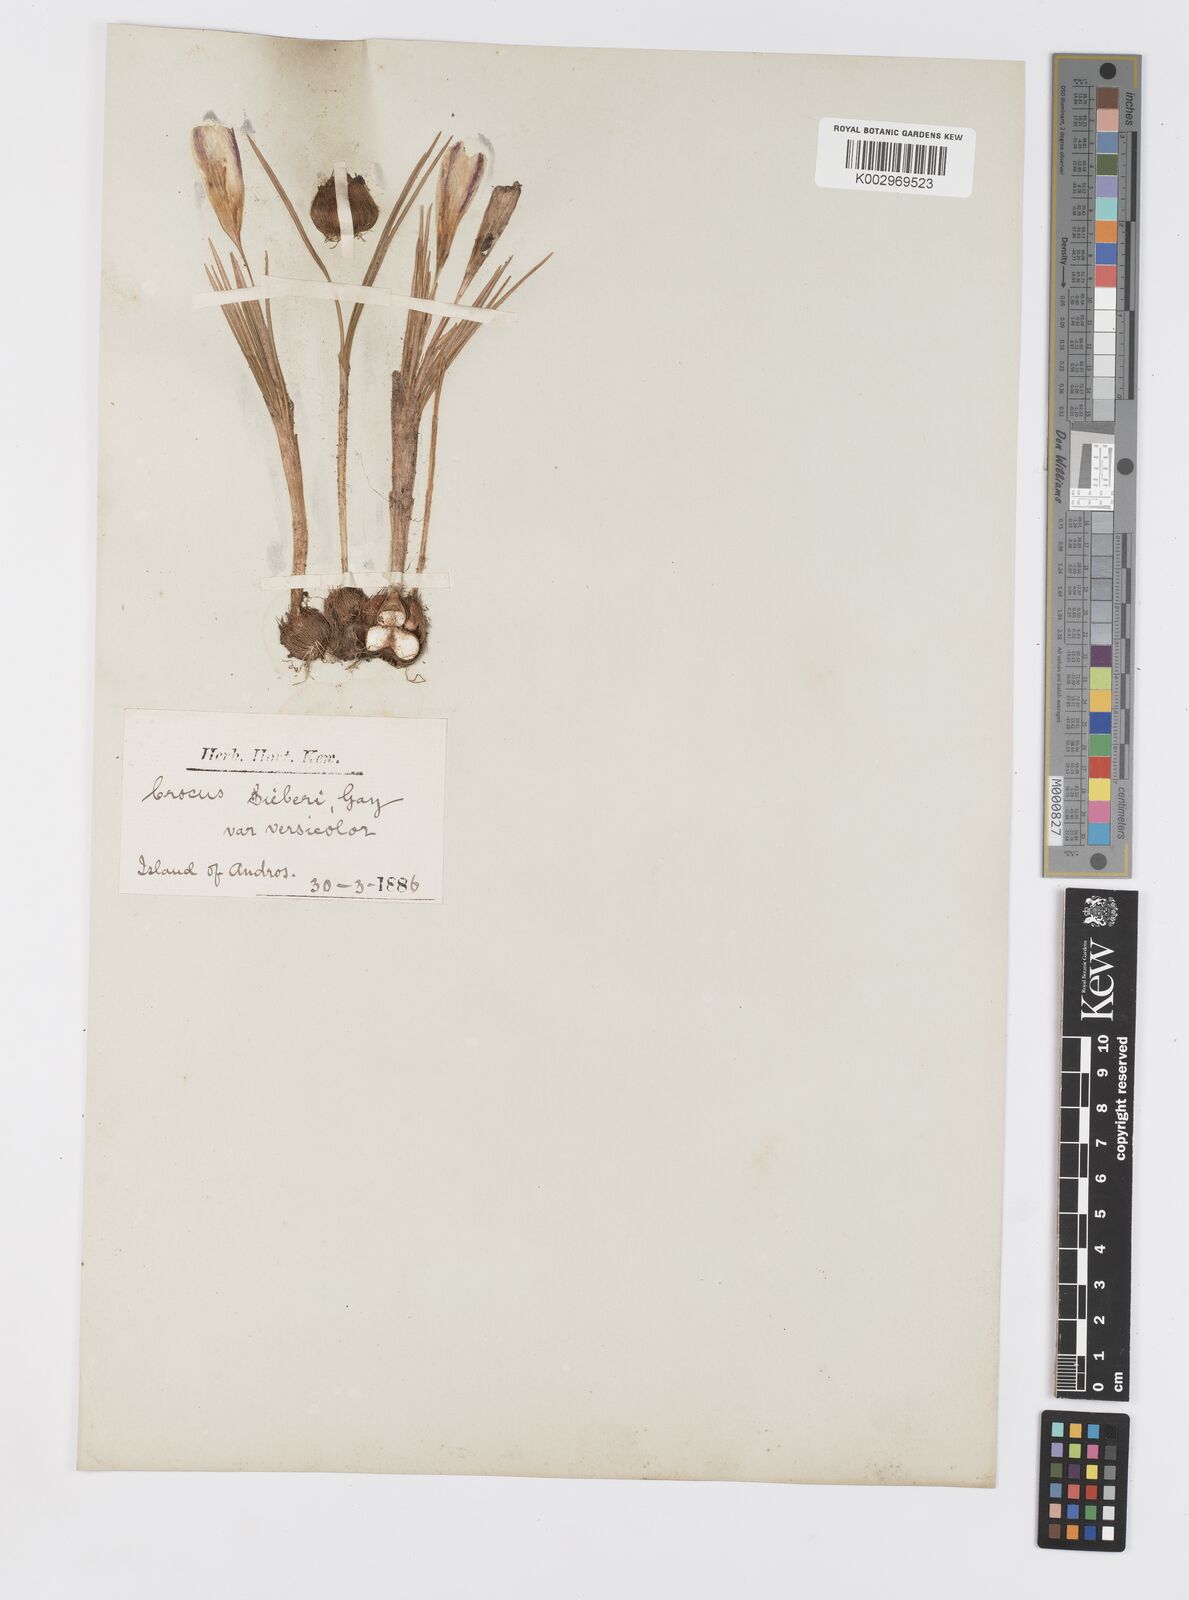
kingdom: Plantae
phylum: Tracheophyta
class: Liliopsida
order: Asparagales
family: Iridaceae
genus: Crocus
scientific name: Crocus sieberi
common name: Sieber's crocus
